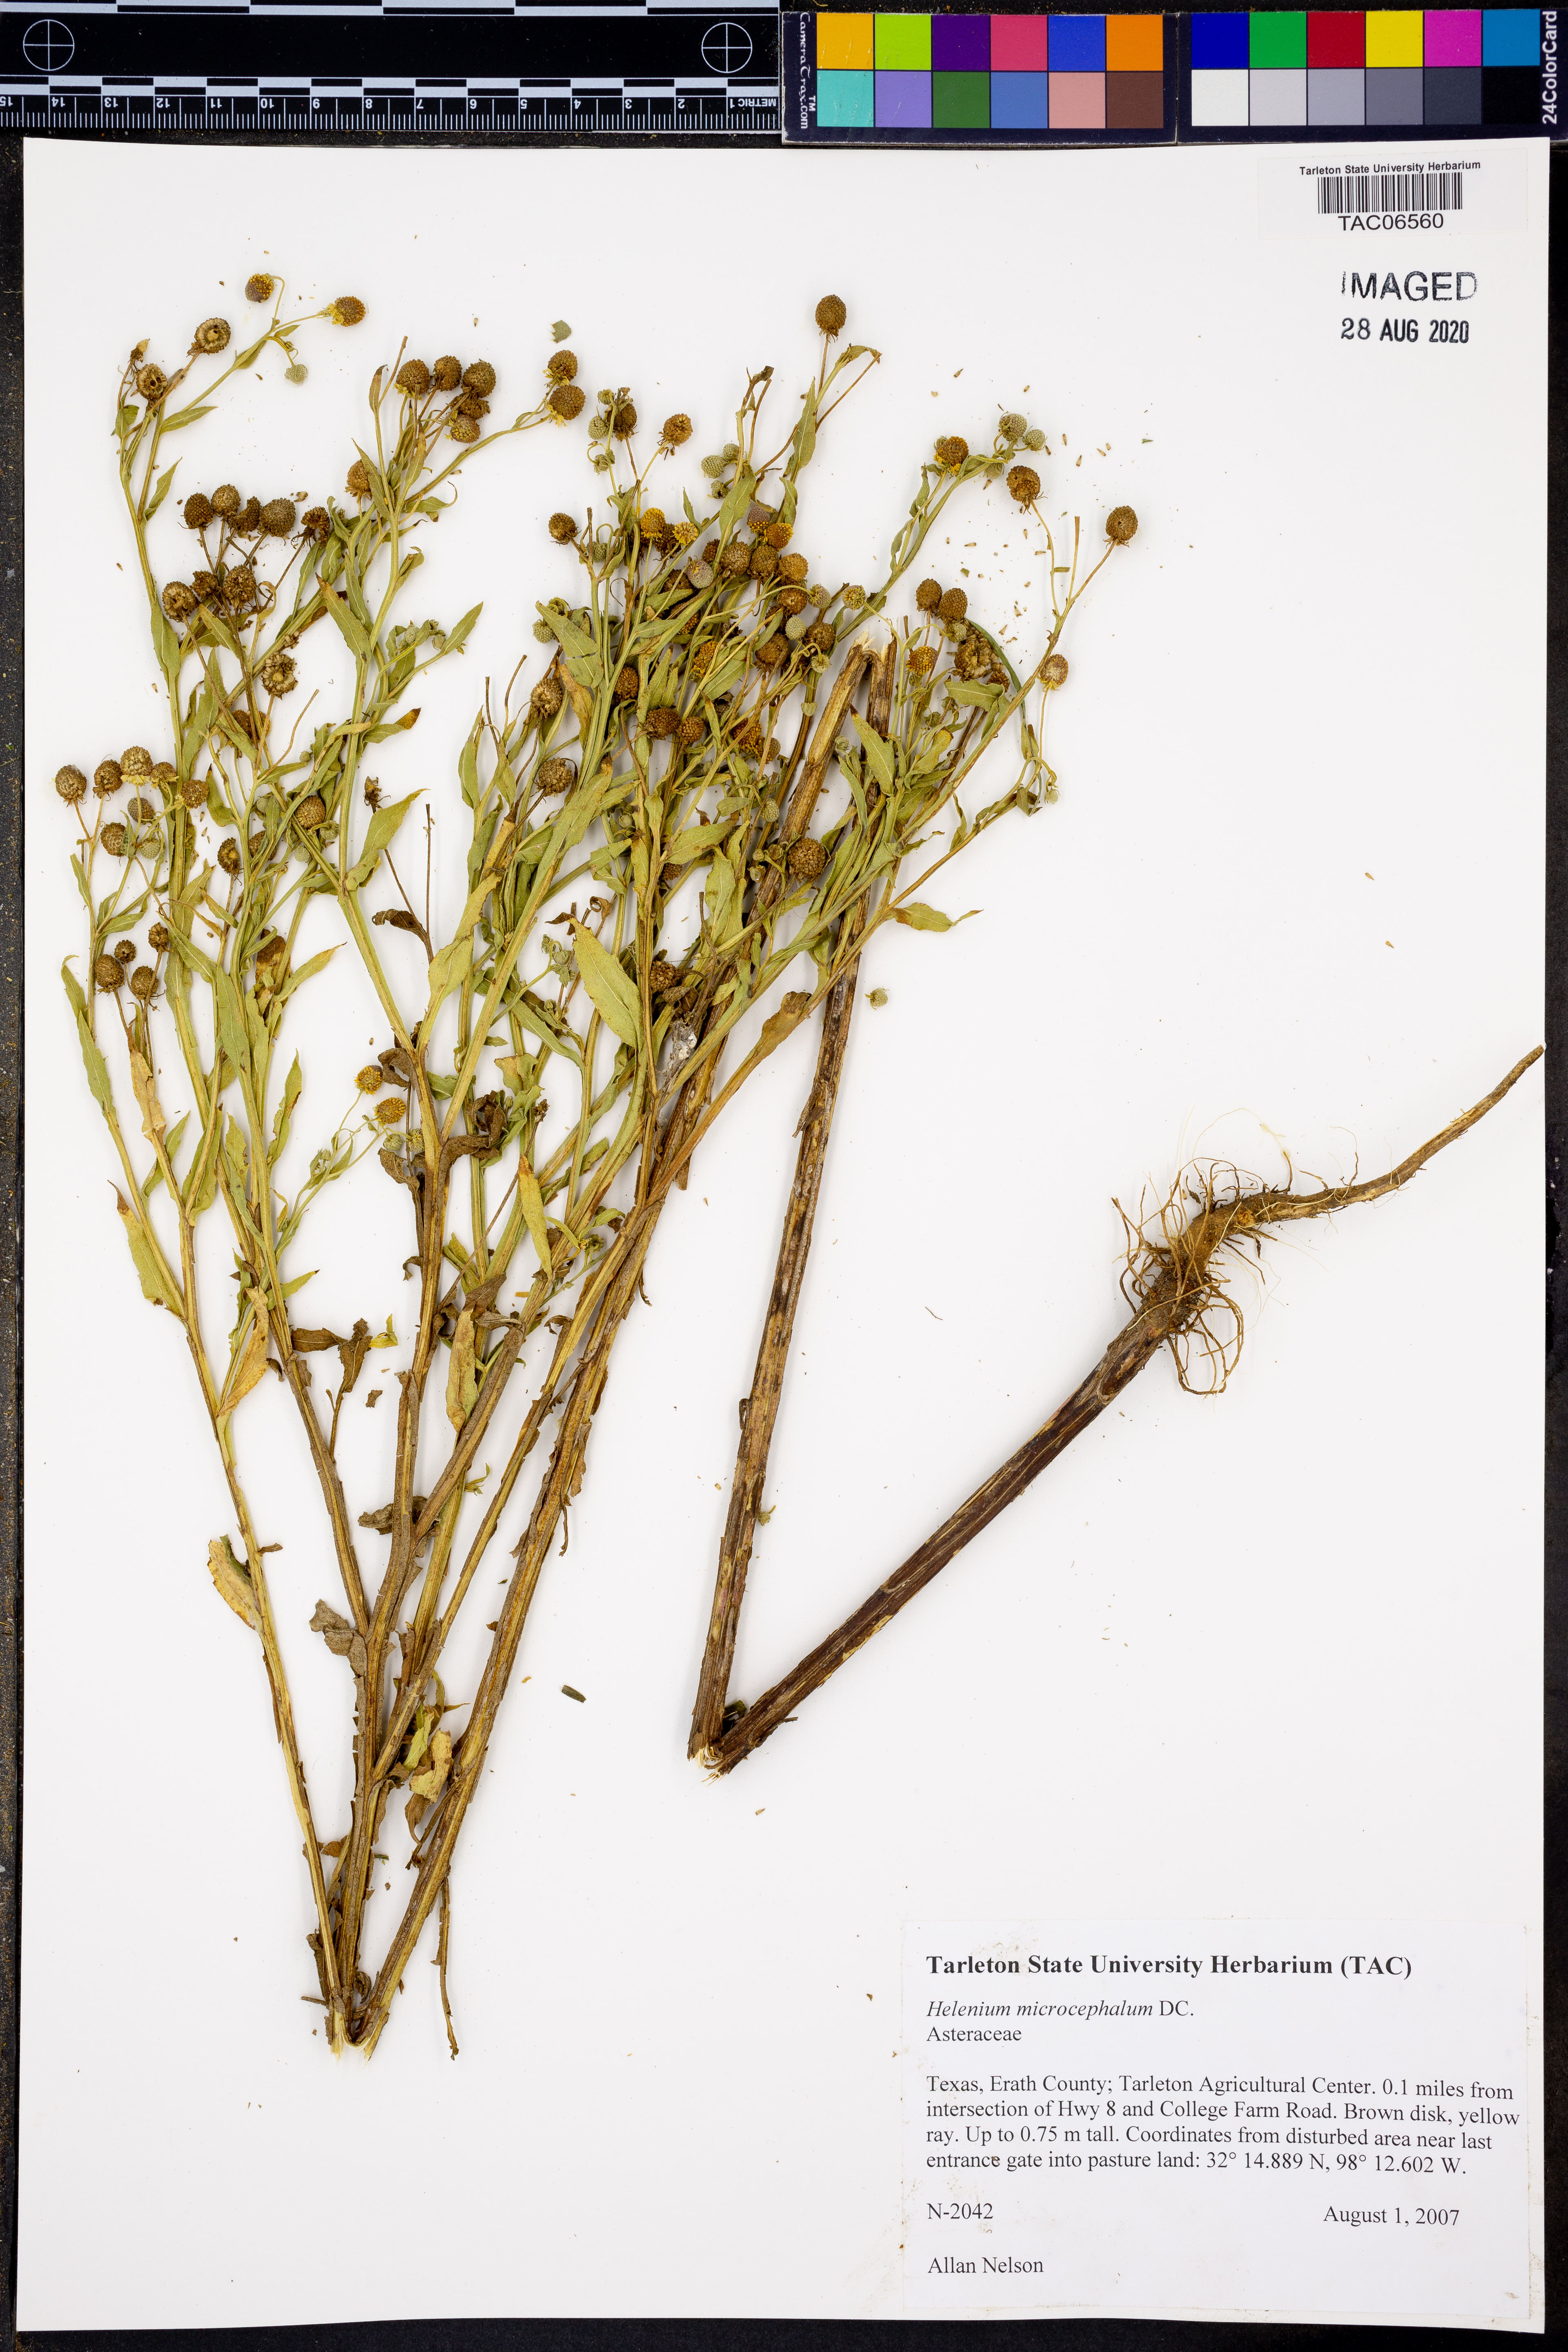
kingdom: Plantae
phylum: Tracheophyta
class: Magnoliopsida
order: Asterales
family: Asteraceae
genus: Helenium
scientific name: Helenium microcephalum
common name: Smallhead sneezeweed
